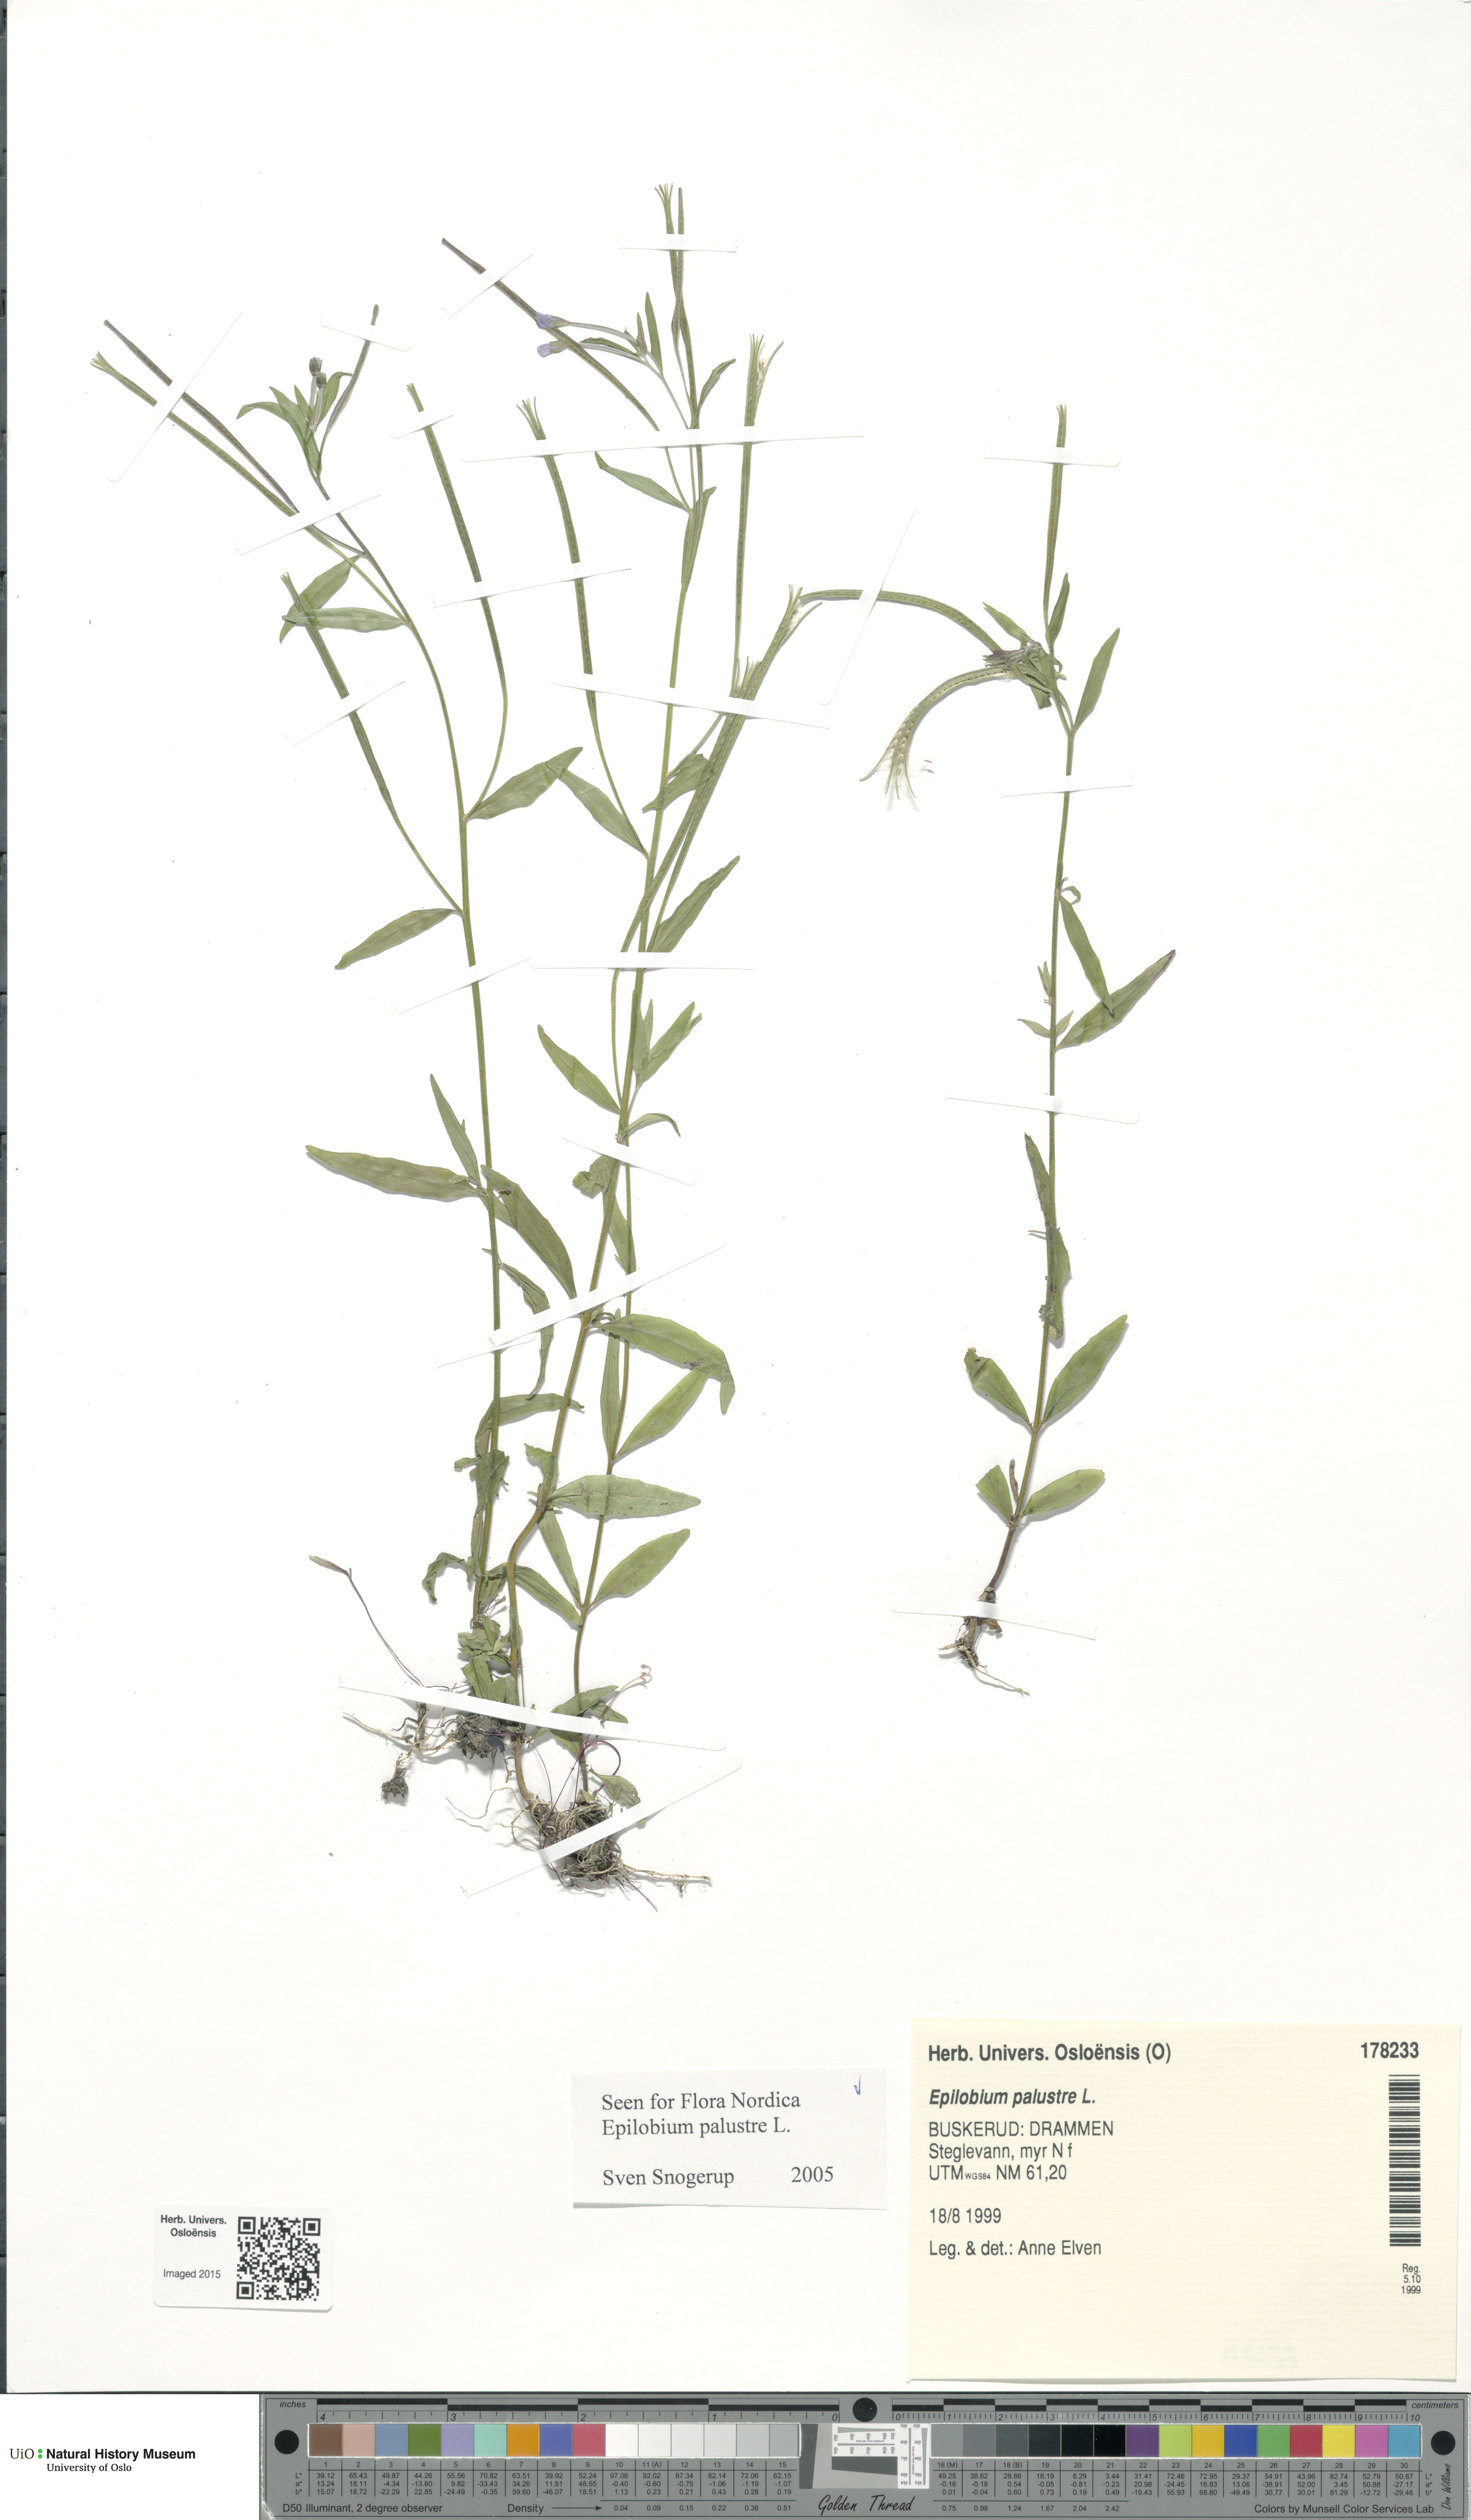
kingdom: Plantae
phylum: Tracheophyta
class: Magnoliopsida
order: Myrtales
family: Onagraceae
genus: Epilobium
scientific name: Epilobium palustre
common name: Marsh willowherb
